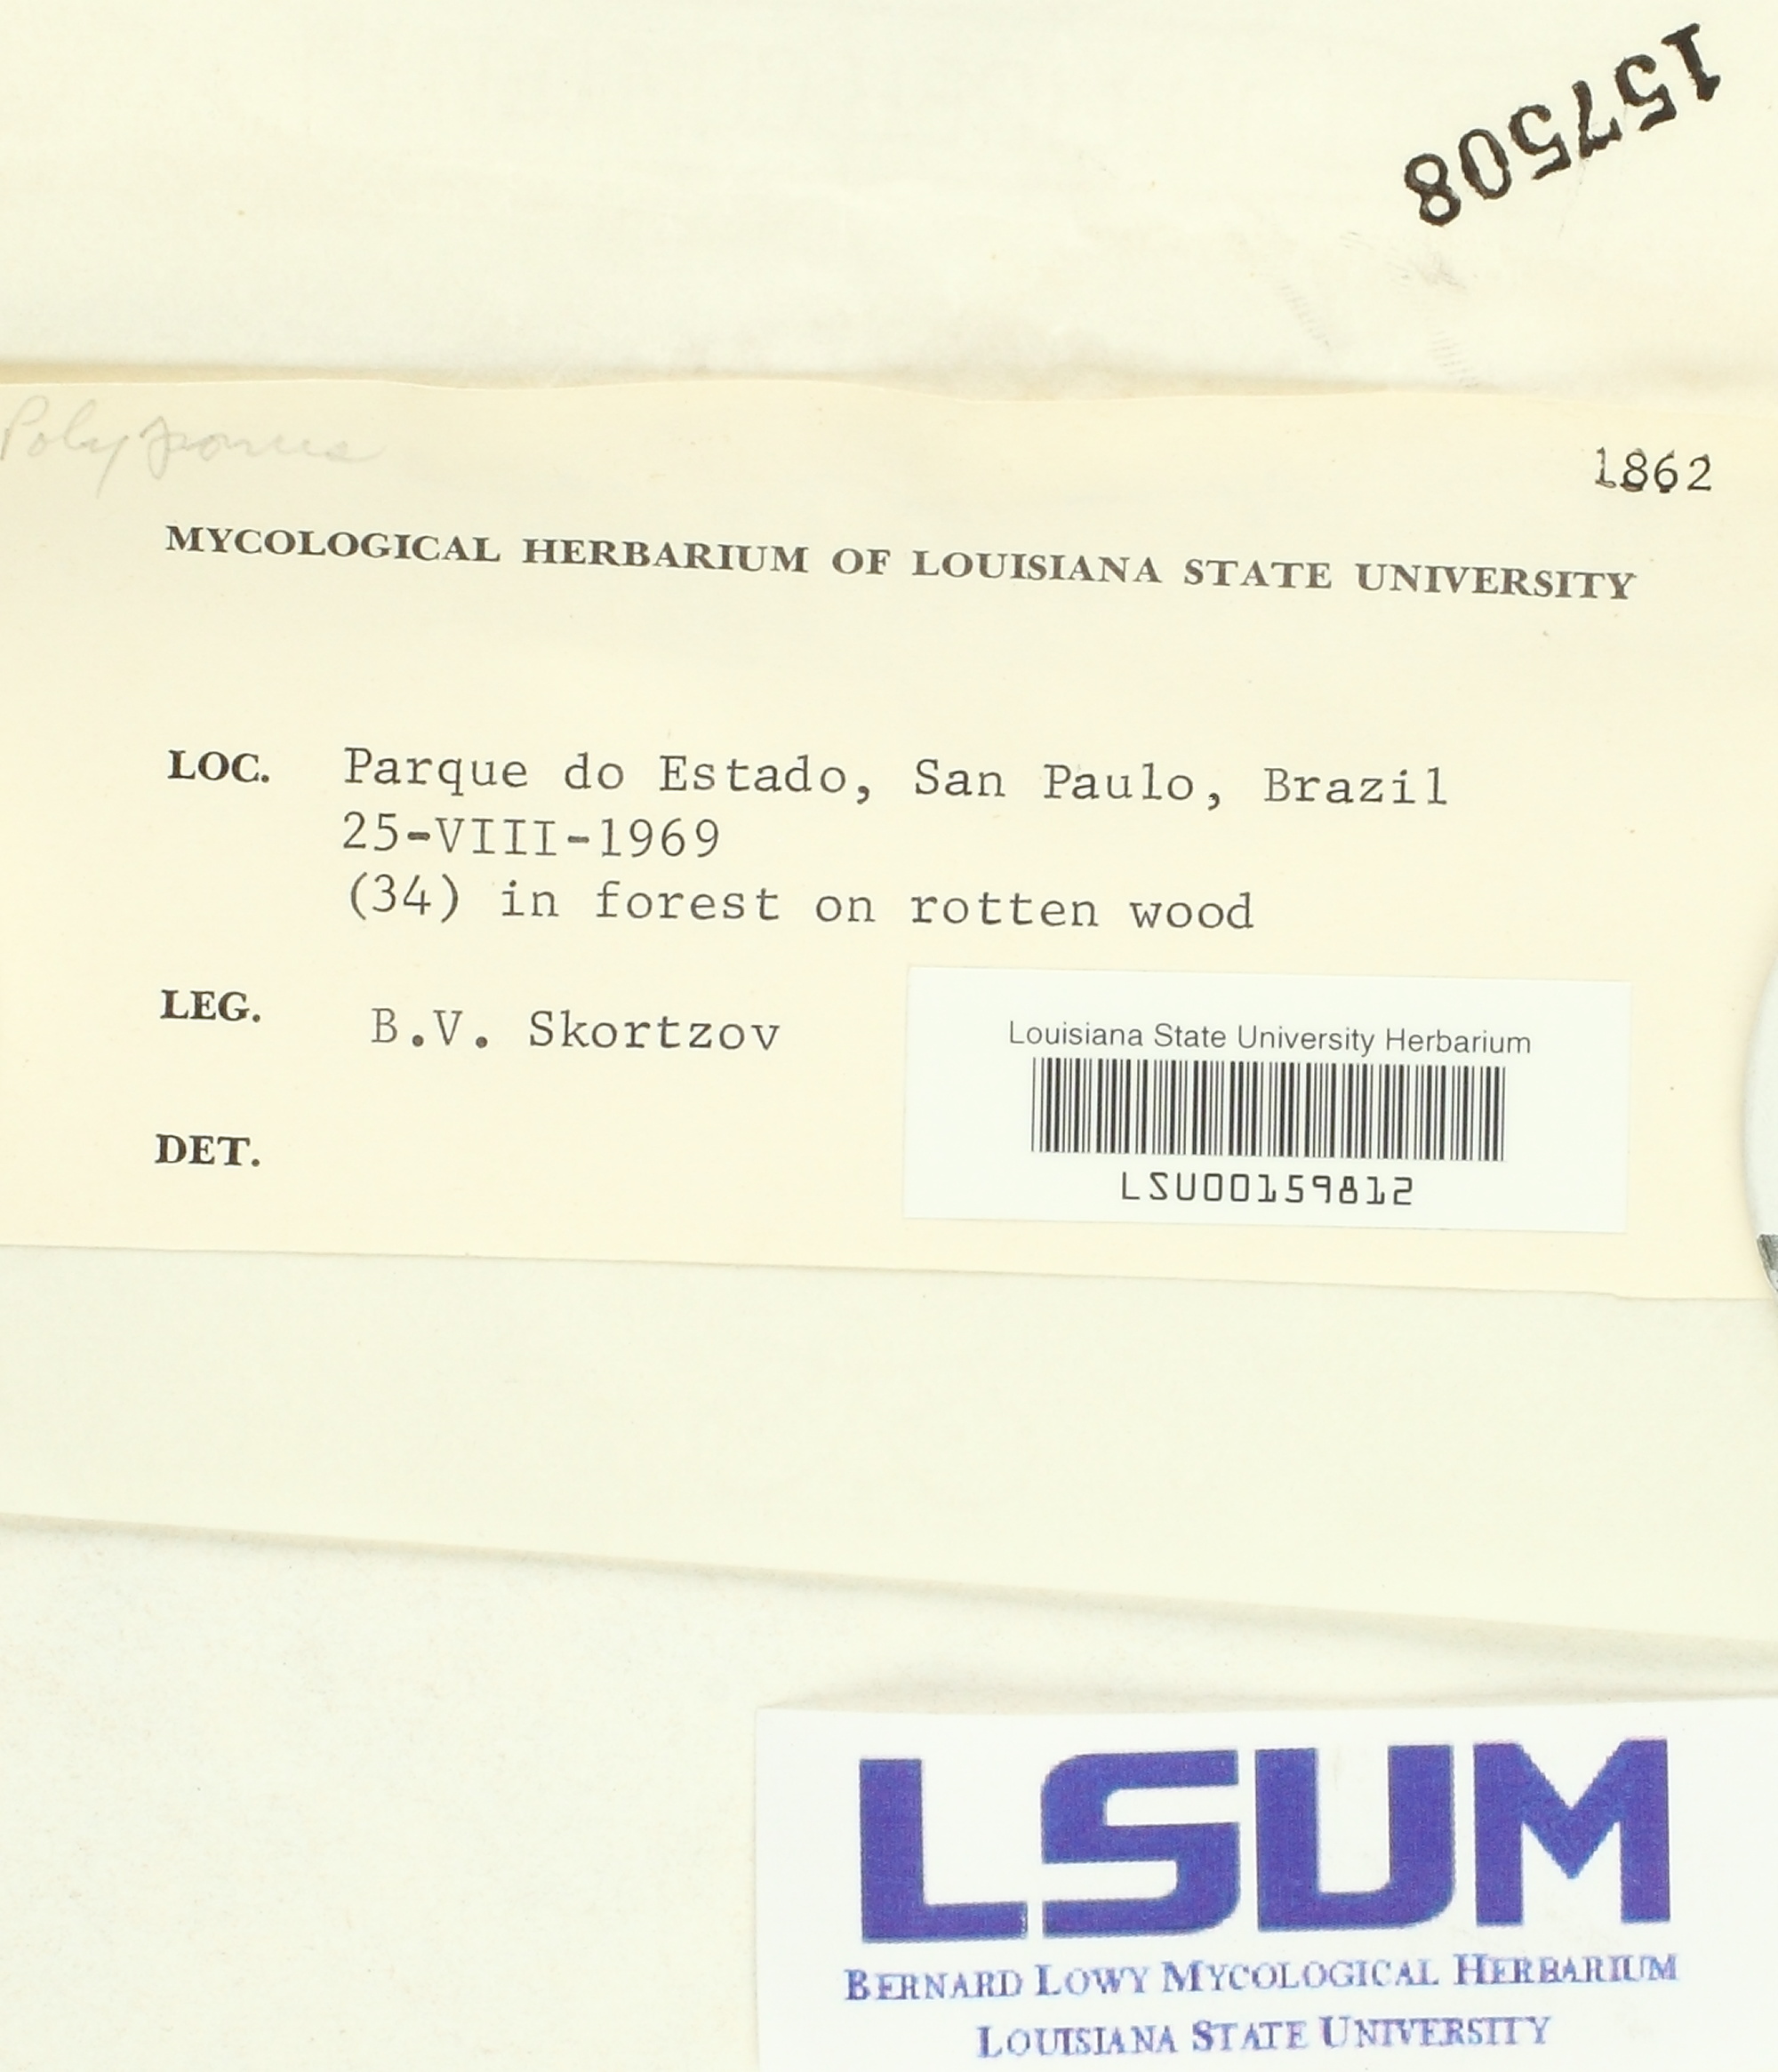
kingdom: Fungi
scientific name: Fungi
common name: Fungi
